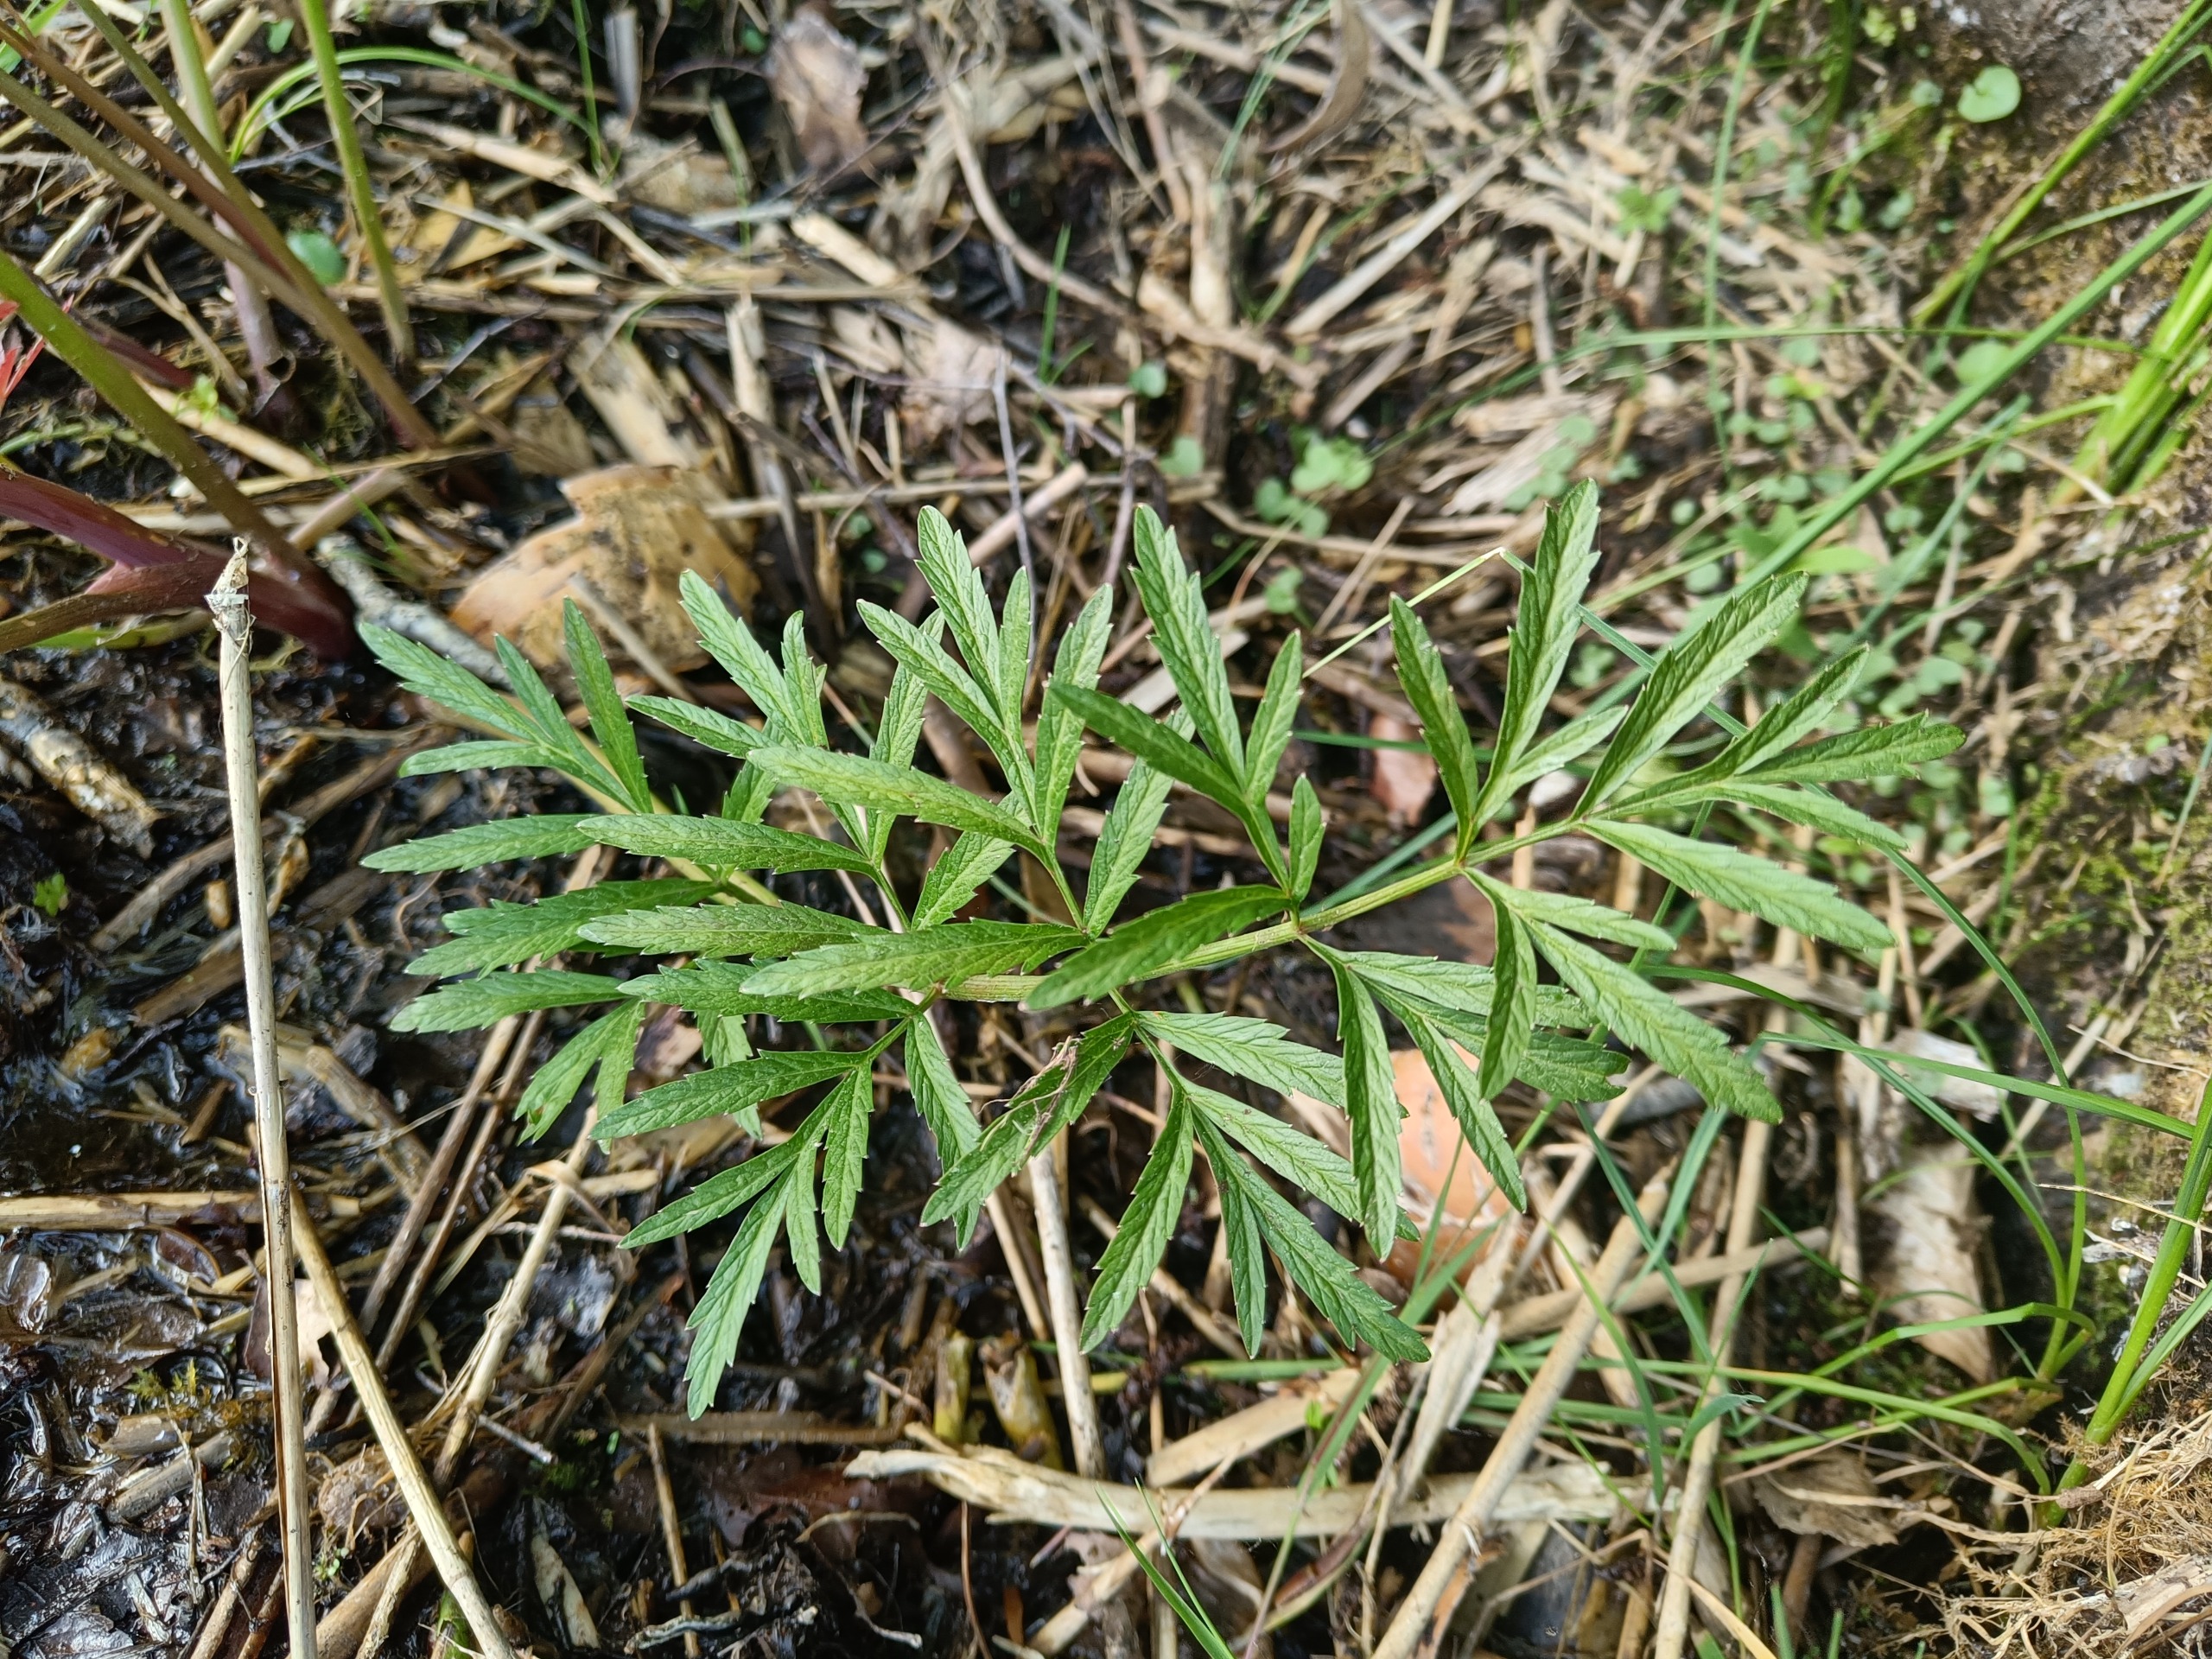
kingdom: Plantae
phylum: Tracheophyta
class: Magnoliopsida
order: Apiales
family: Apiaceae
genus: Cicuta
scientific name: Cicuta virosa
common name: Gifttyde
